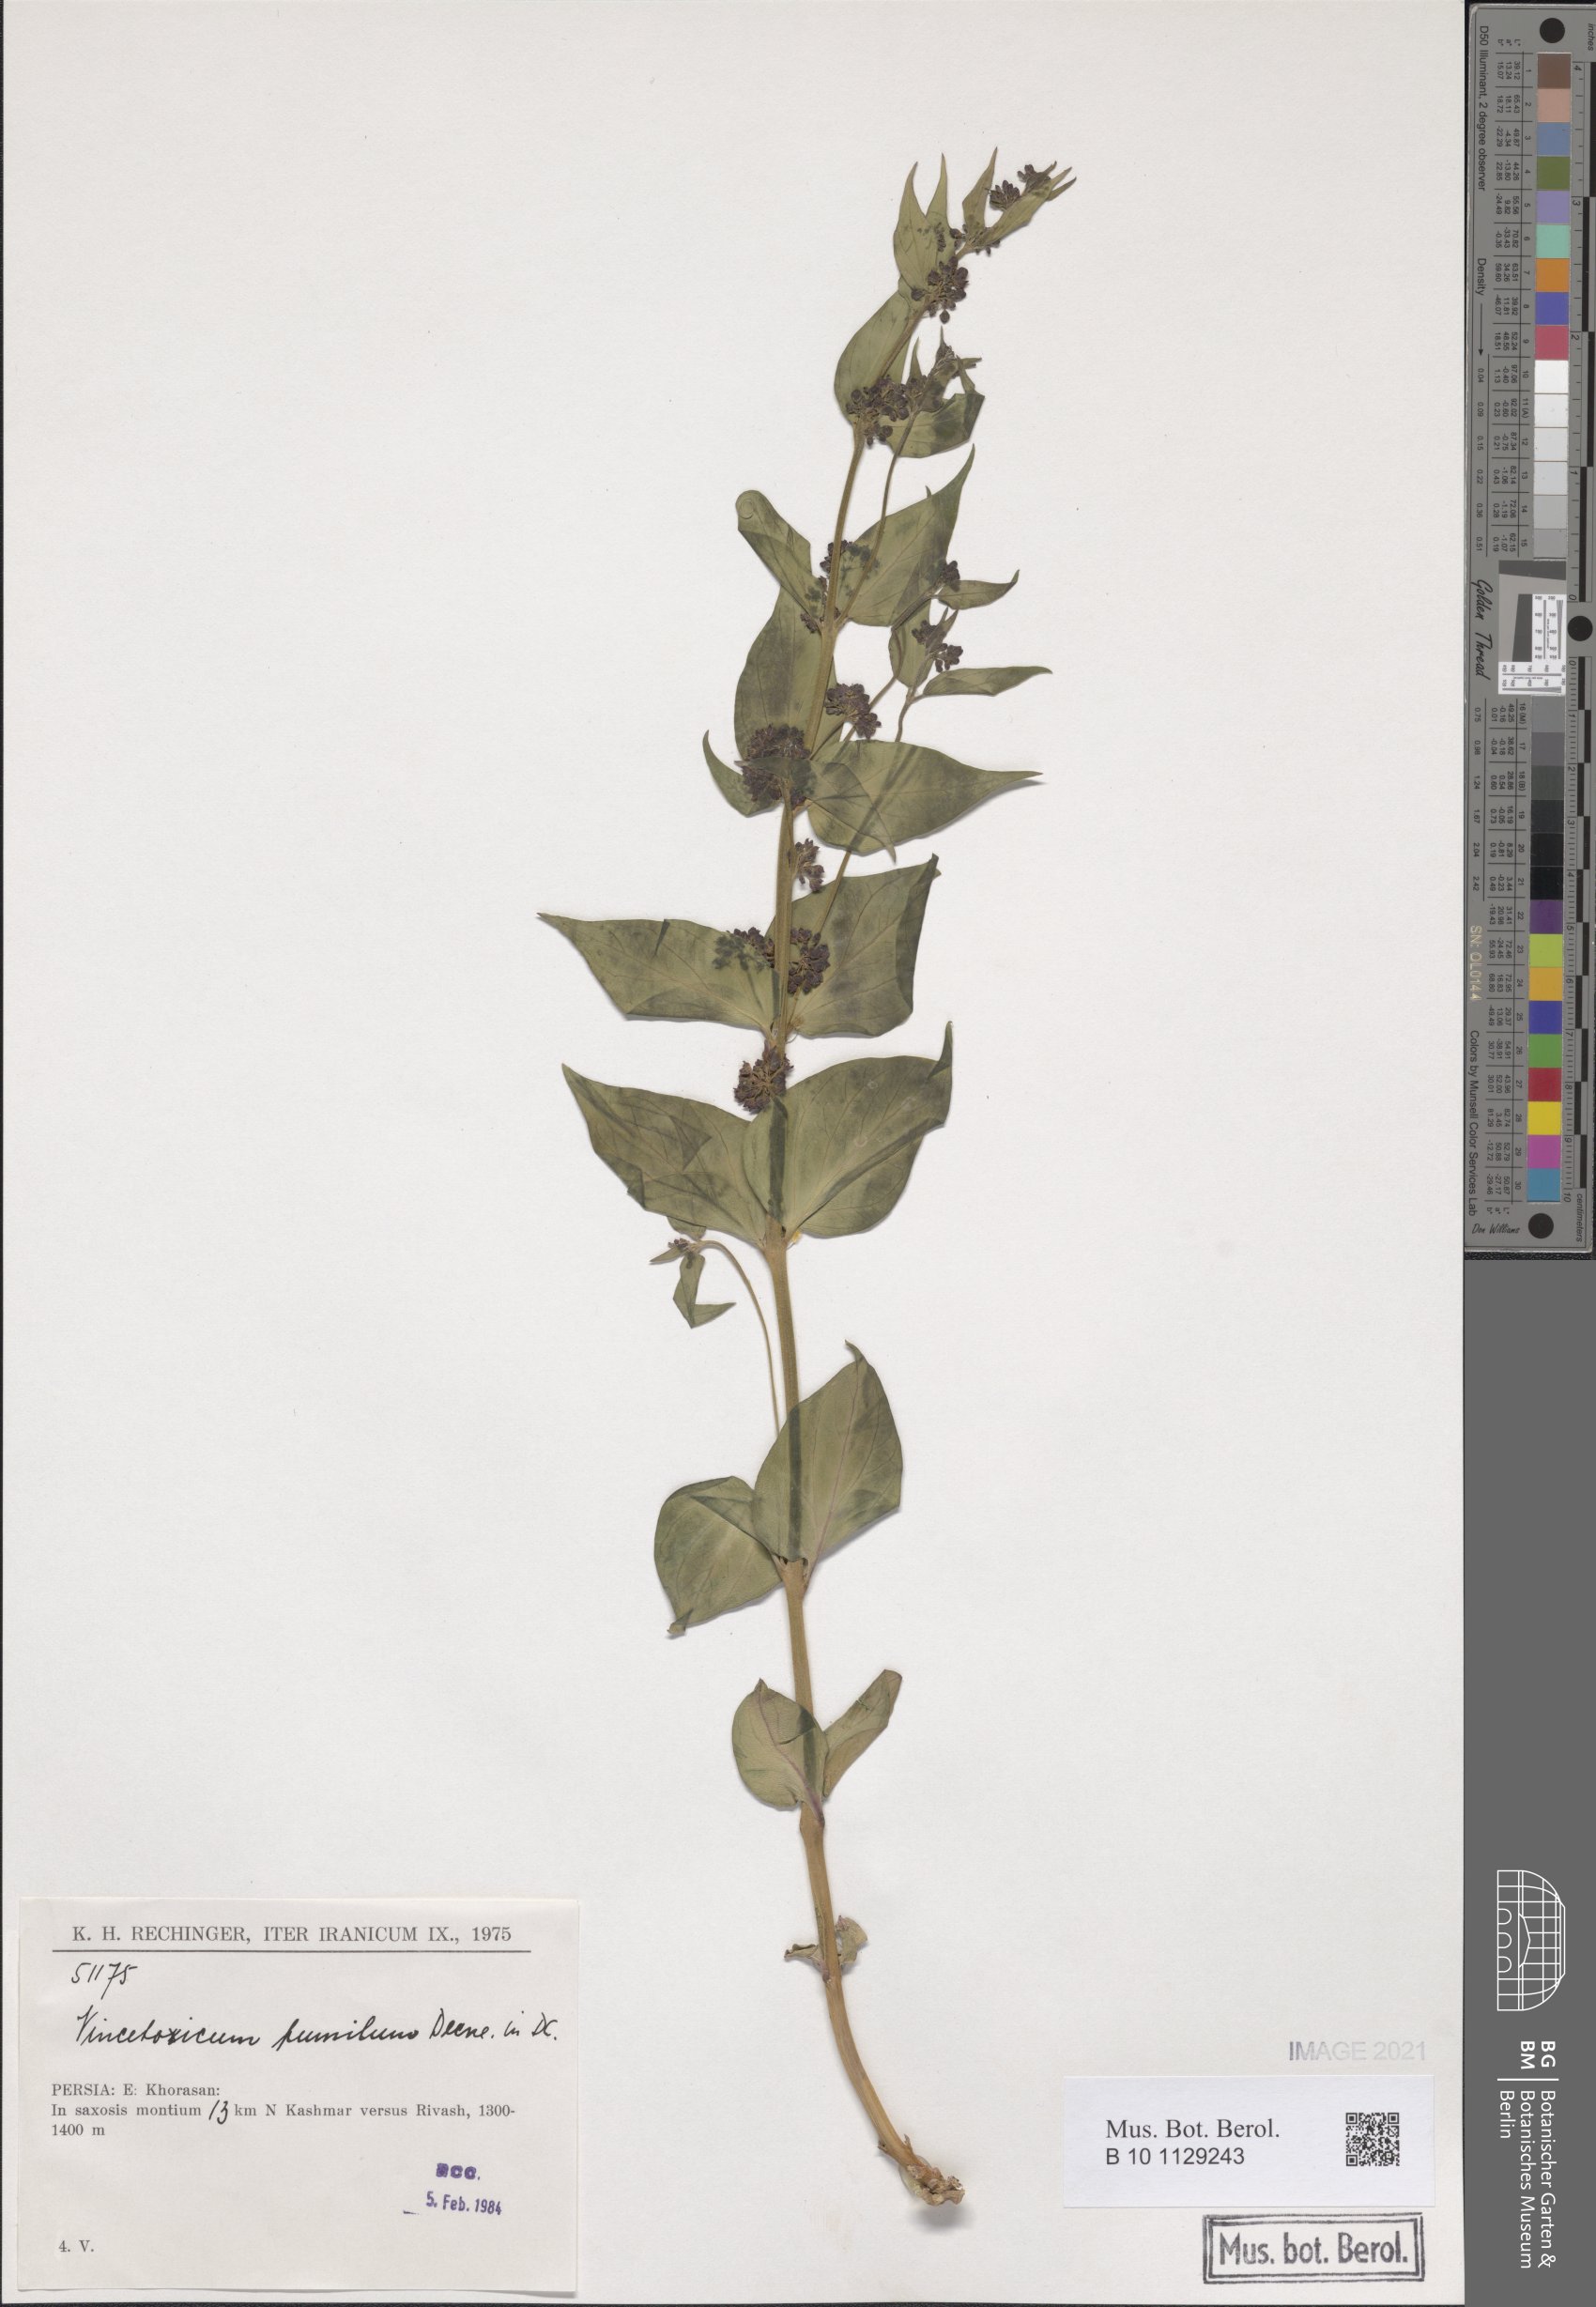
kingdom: Plantae
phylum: Tracheophyta
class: Magnoliopsida
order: Gentianales
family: Apocynaceae
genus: Vincetoxicum
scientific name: Vincetoxicum pumilum
